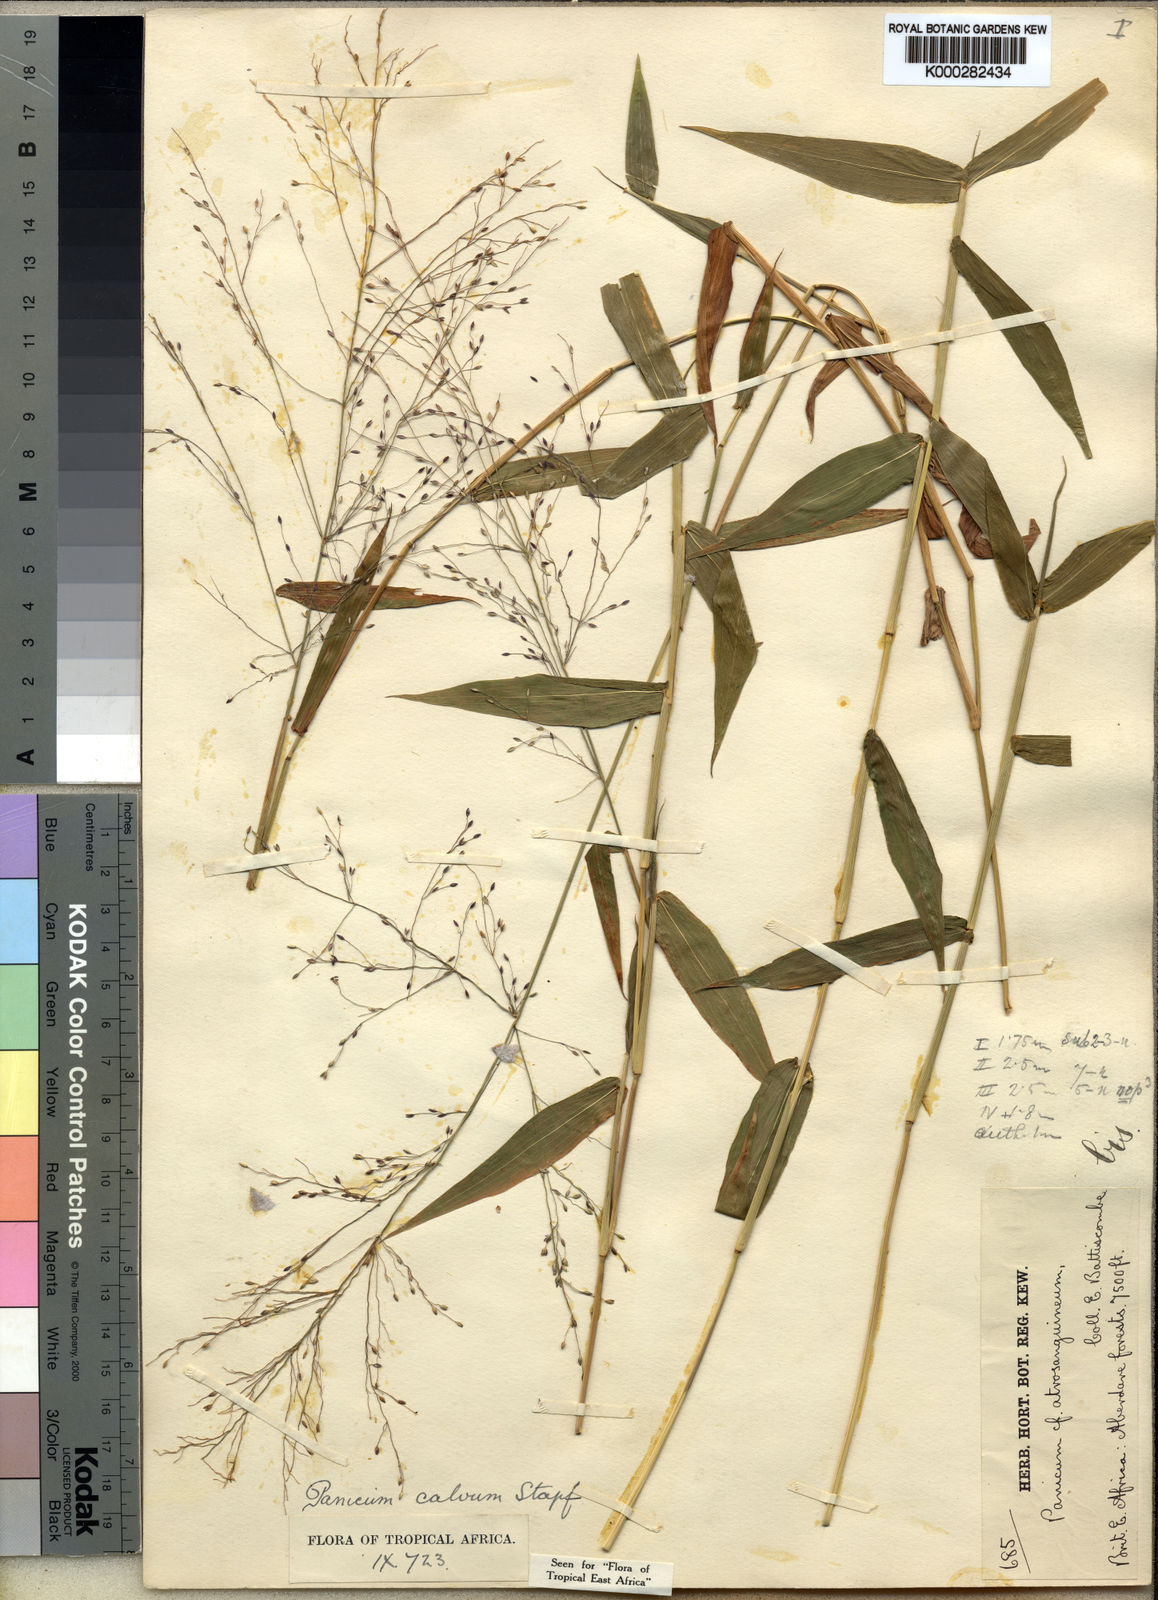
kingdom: Plantae
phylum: Tracheophyta
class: Liliopsida
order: Poales
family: Poaceae
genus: Panicum
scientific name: Panicum calvum
